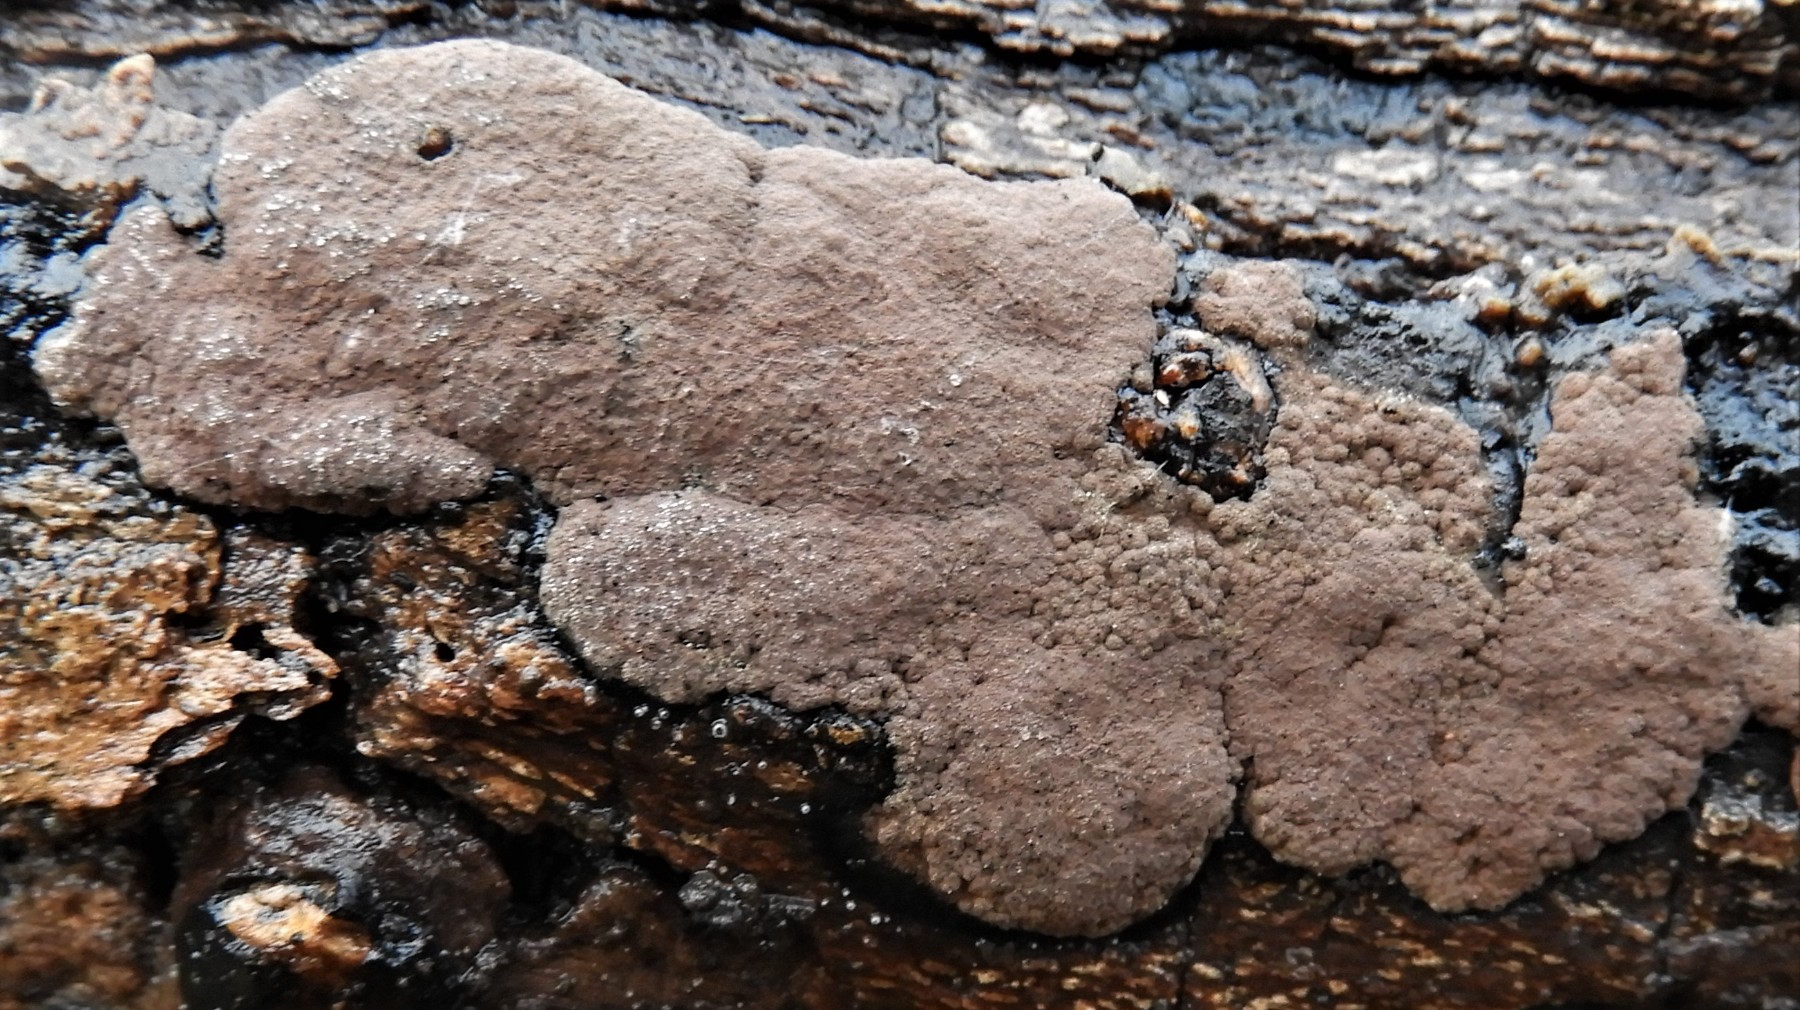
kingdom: Fungi
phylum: Ascomycota
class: Sordariomycetes
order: Xylariales
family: Hypoxylaceae
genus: Hypoxylon
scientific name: Hypoxylon
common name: kulbær
